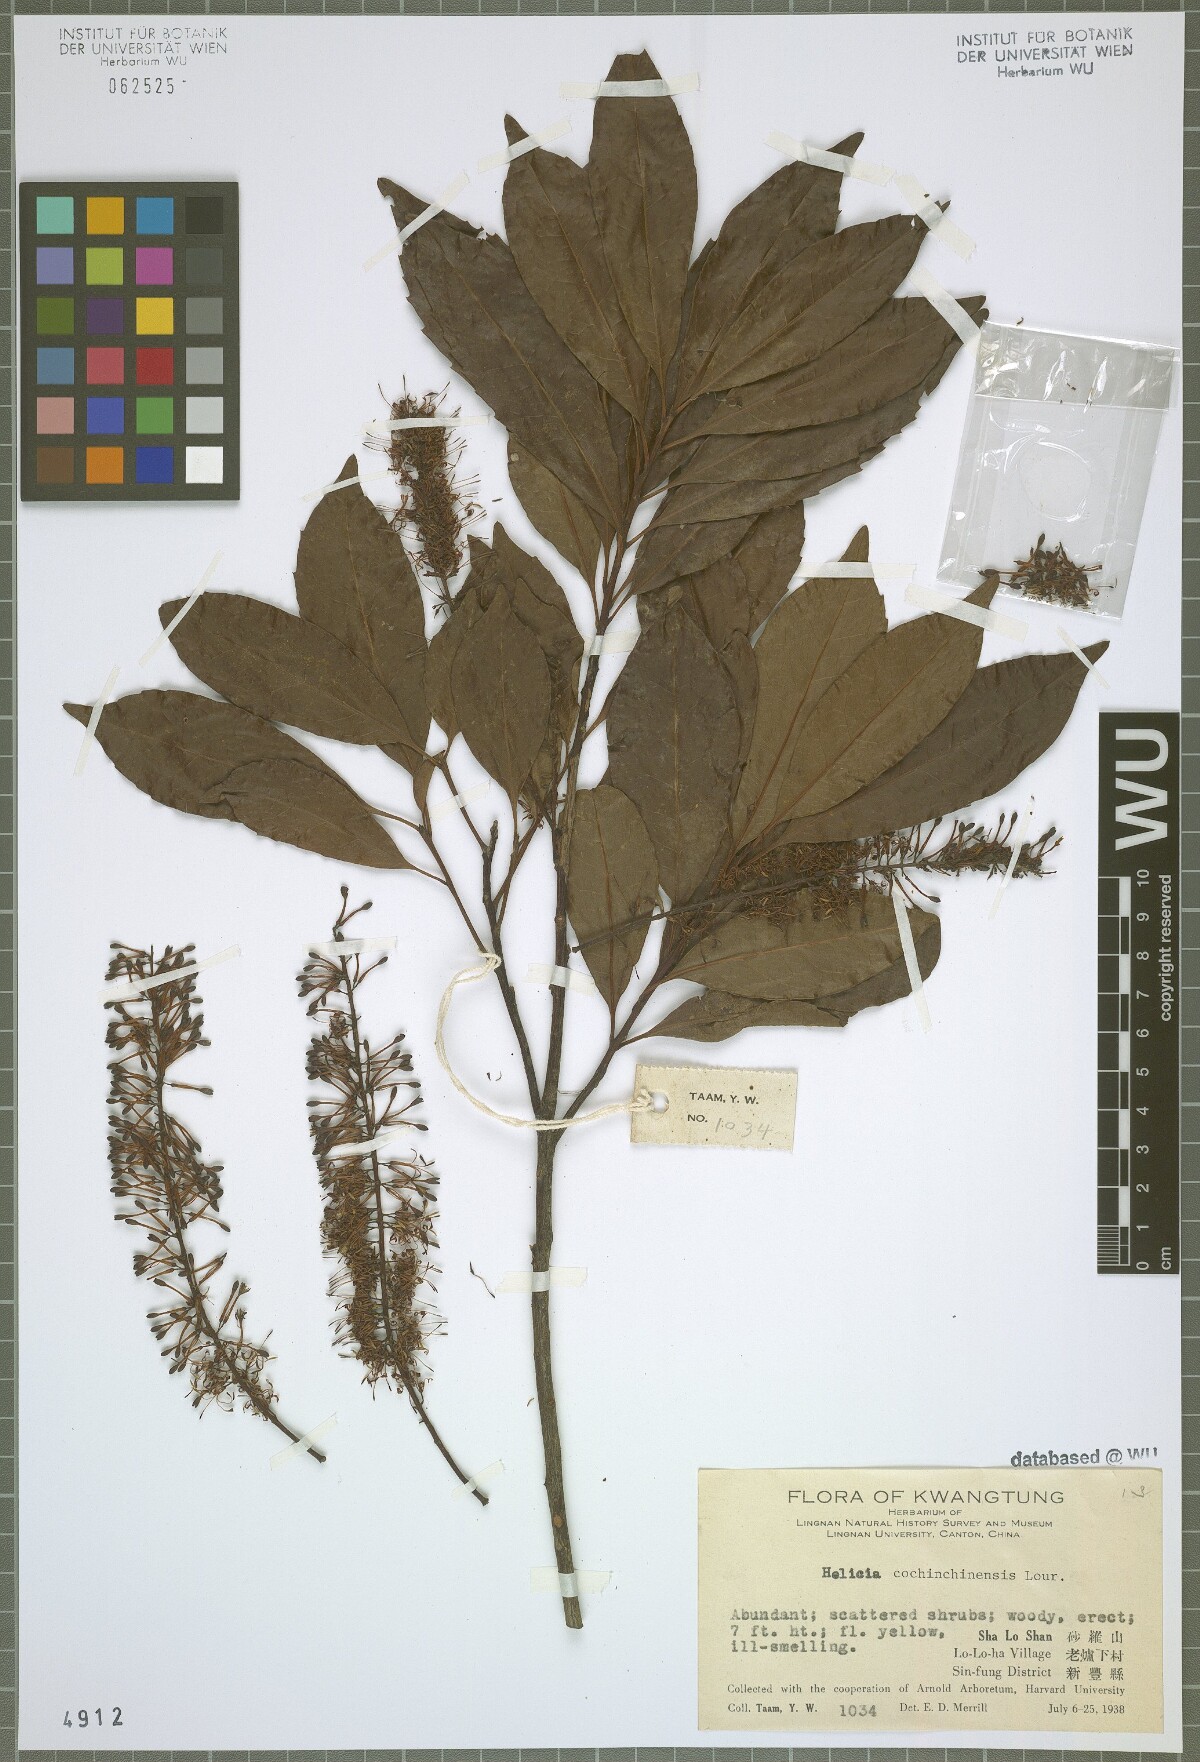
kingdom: Plantae
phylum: Tracheophyta
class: Magnoliopsida
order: Proteales
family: Proteaceae
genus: Helicia
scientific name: Helicia cochinchinensis
